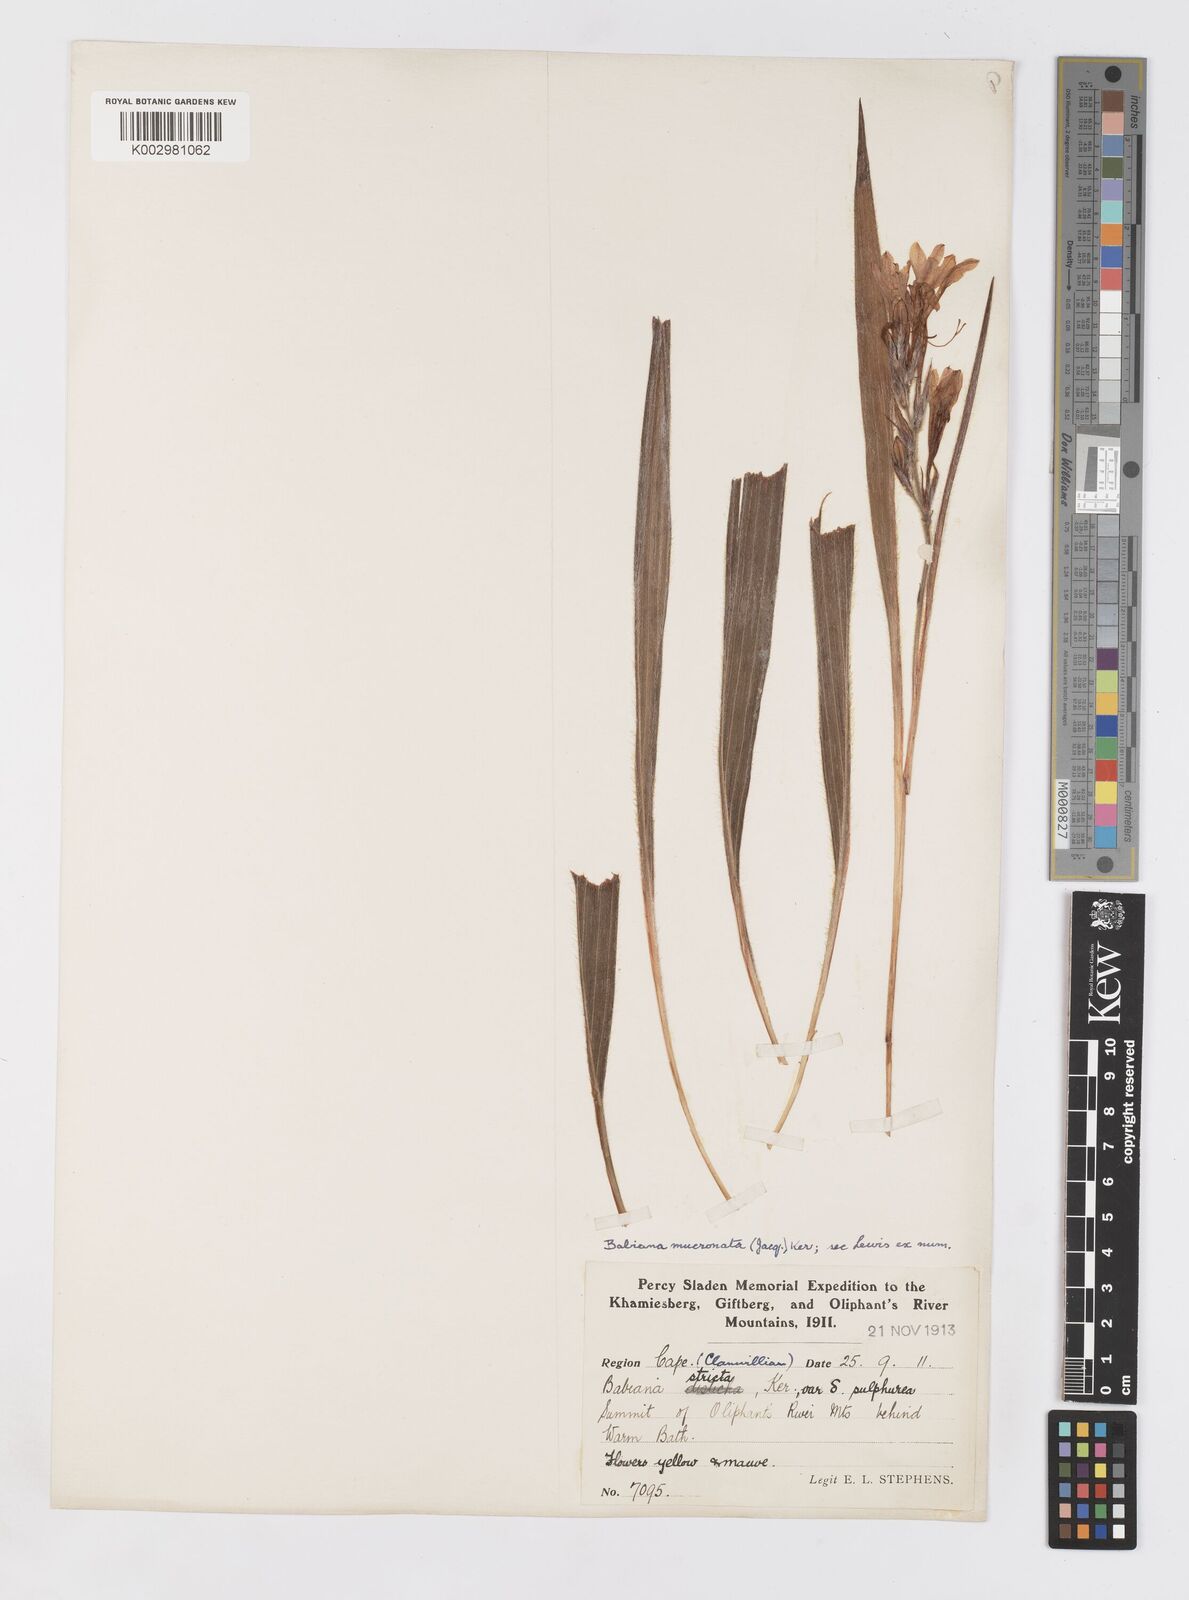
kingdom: Plantae
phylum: Tracheophyta
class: Liliopsida
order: Asparagales
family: Iridaceae
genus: Babiana
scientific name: Babiana mucronata
